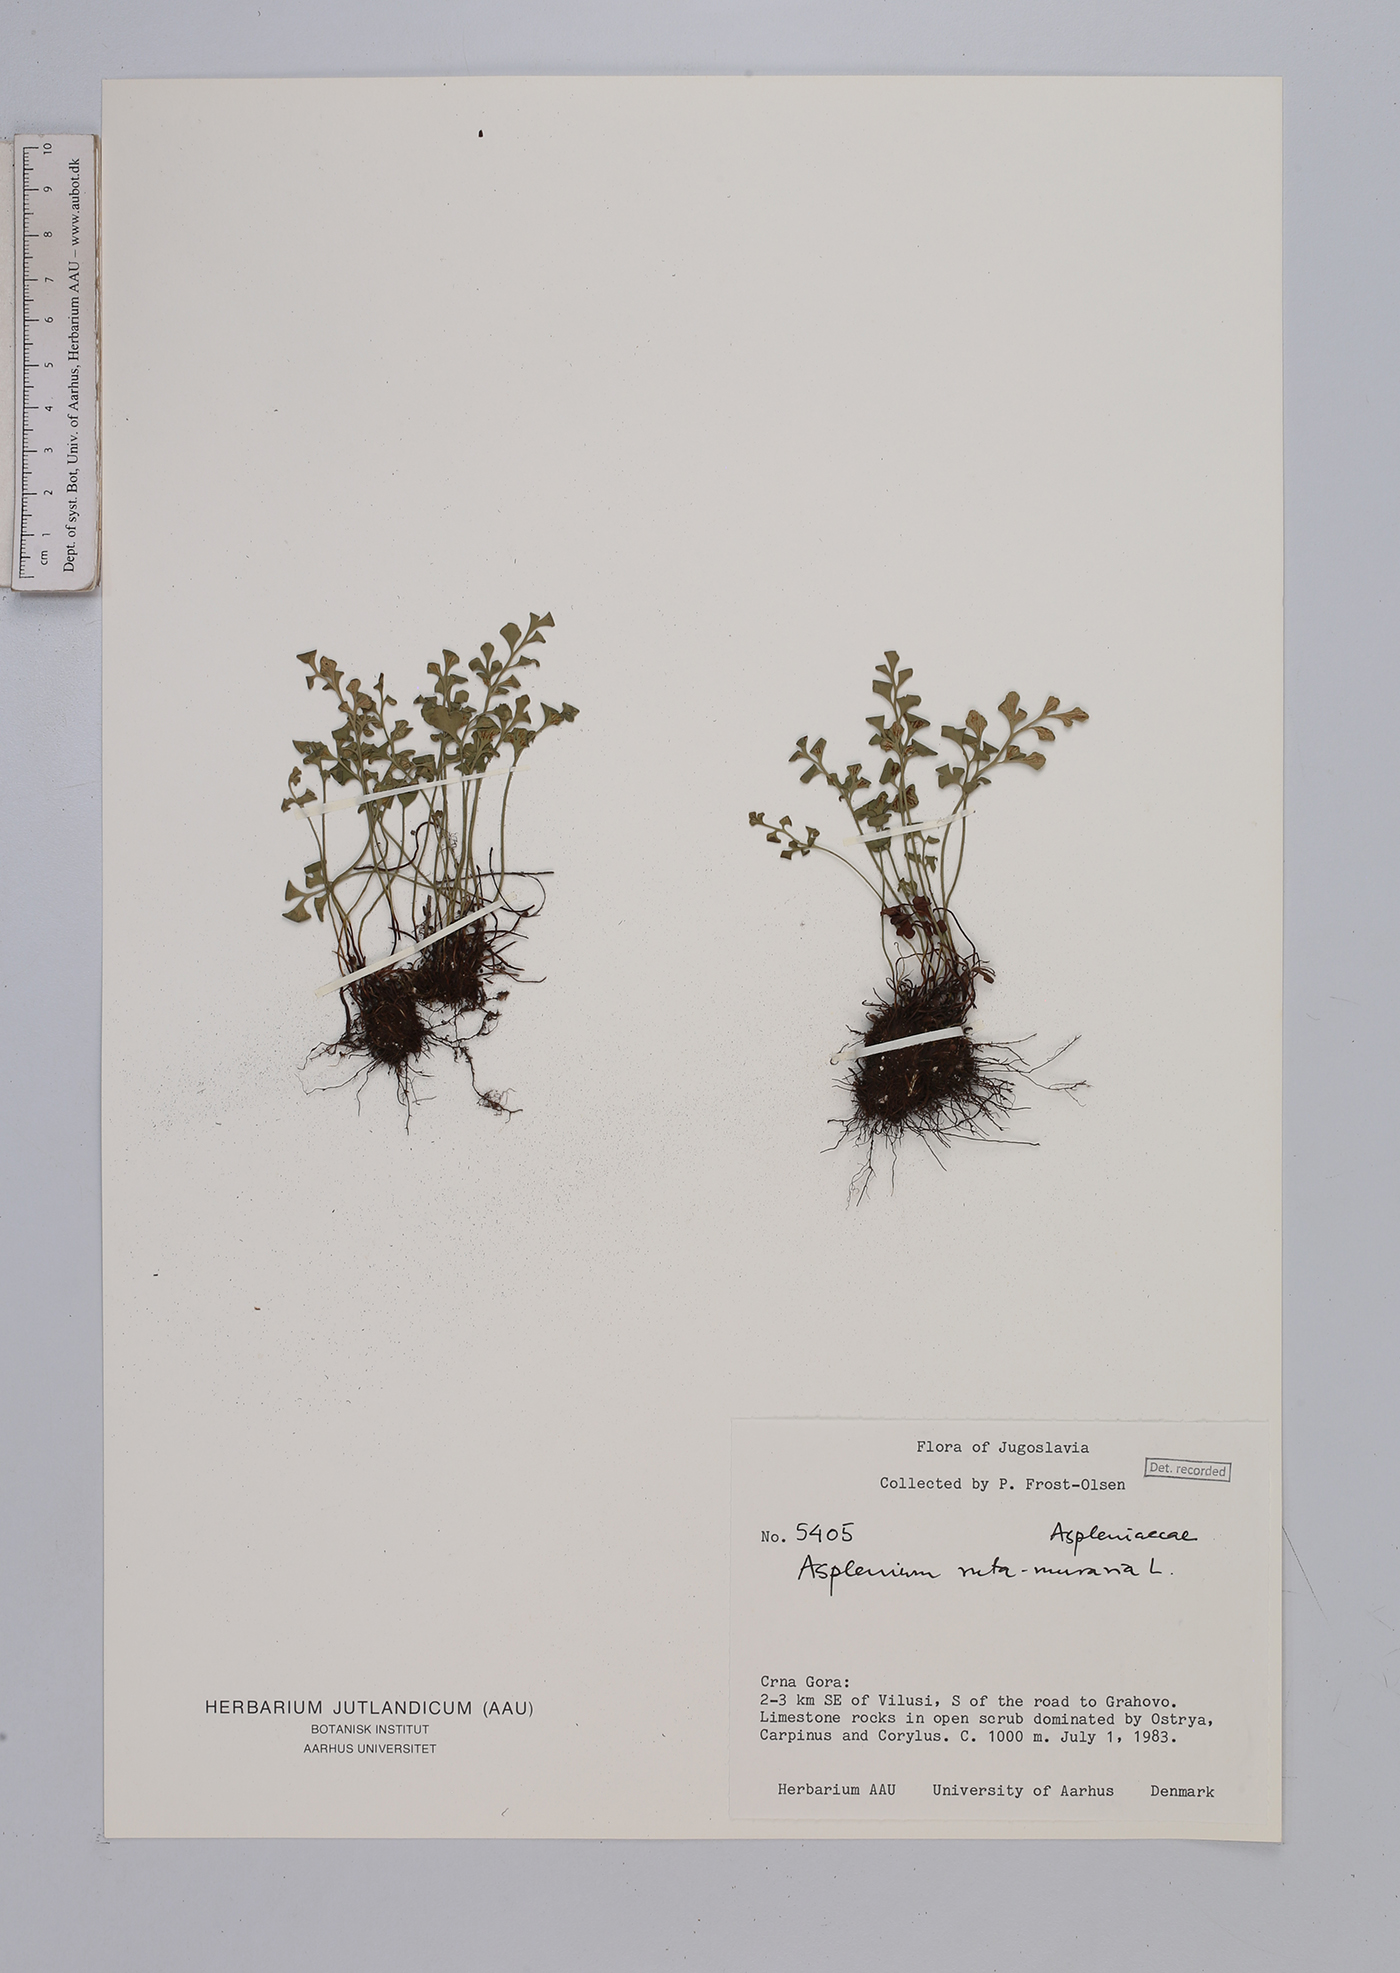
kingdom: Plantae
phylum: Tracheophyta
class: Polypodiopsida
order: Polypodiales
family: Aspleniaceae
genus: Asplenium
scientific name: Asplenium ruta-muraria
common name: Wall-rue
